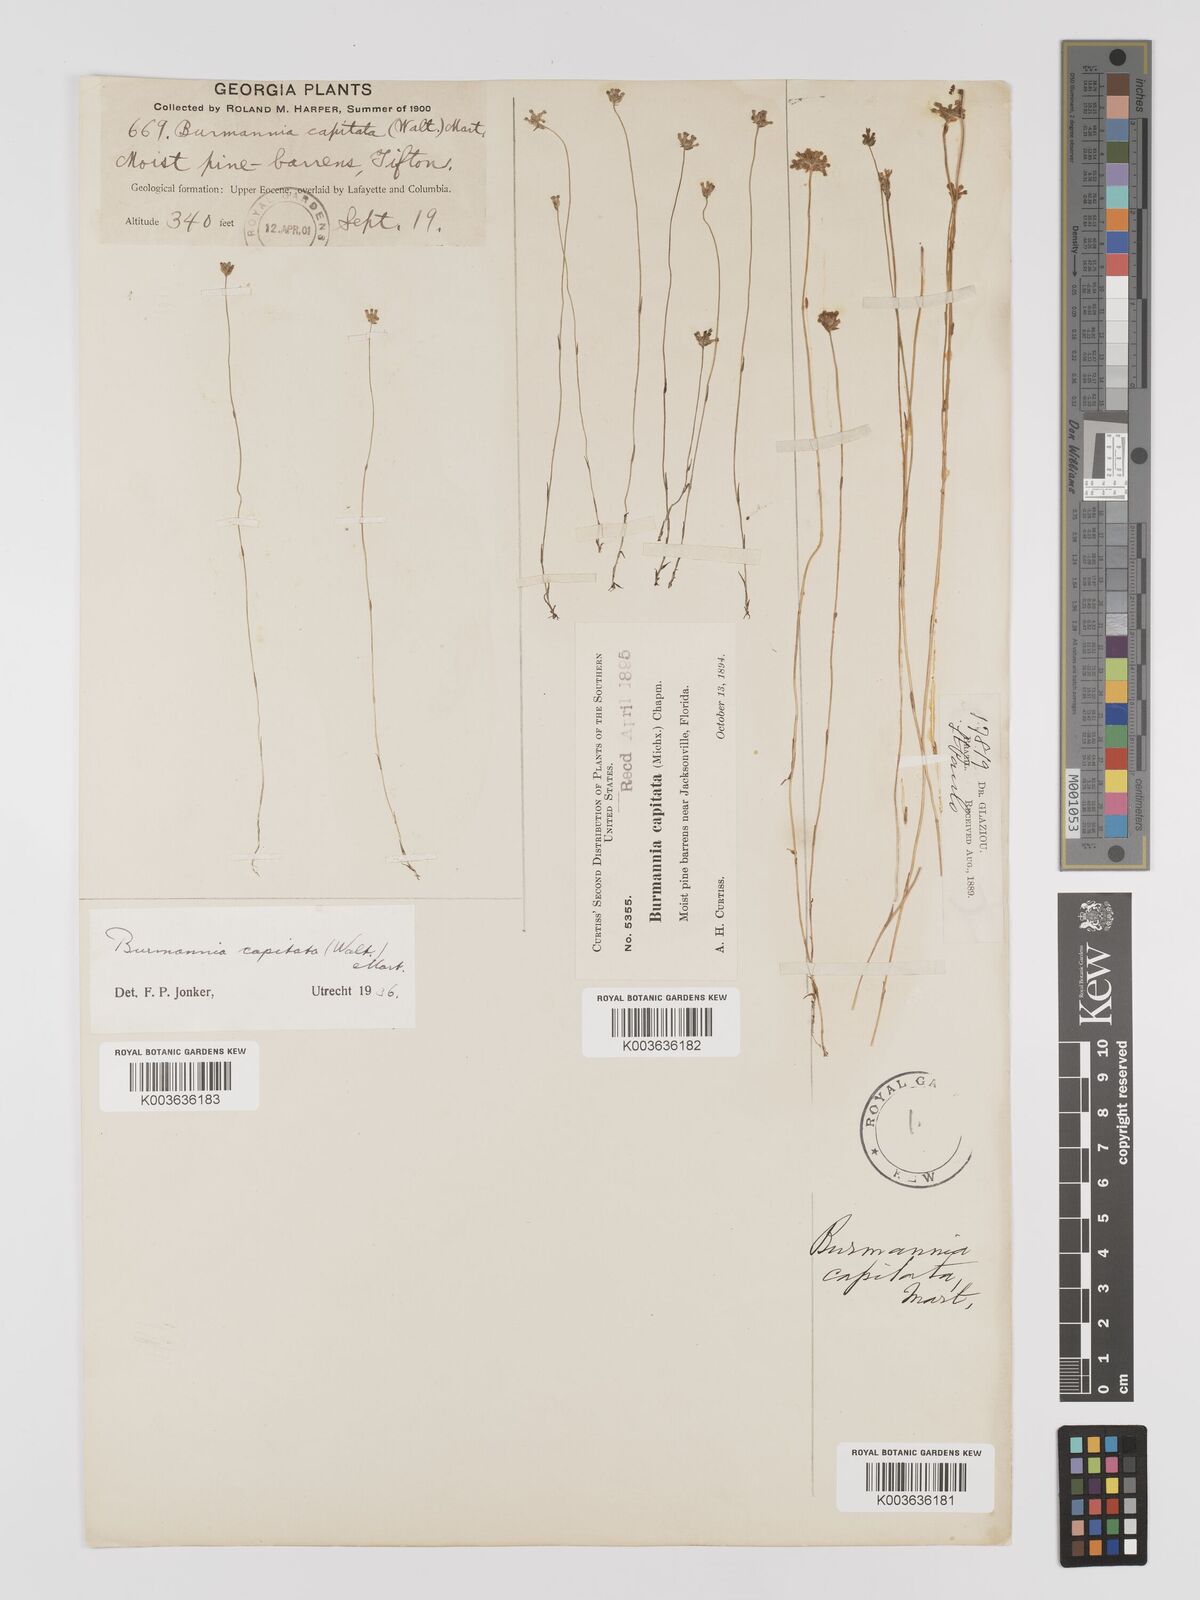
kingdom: Plantae
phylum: Tracheophyta
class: Liliopsida
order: Dioscoreales
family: Burmanniaceae
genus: Burmannia
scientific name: Burmannia capitata
